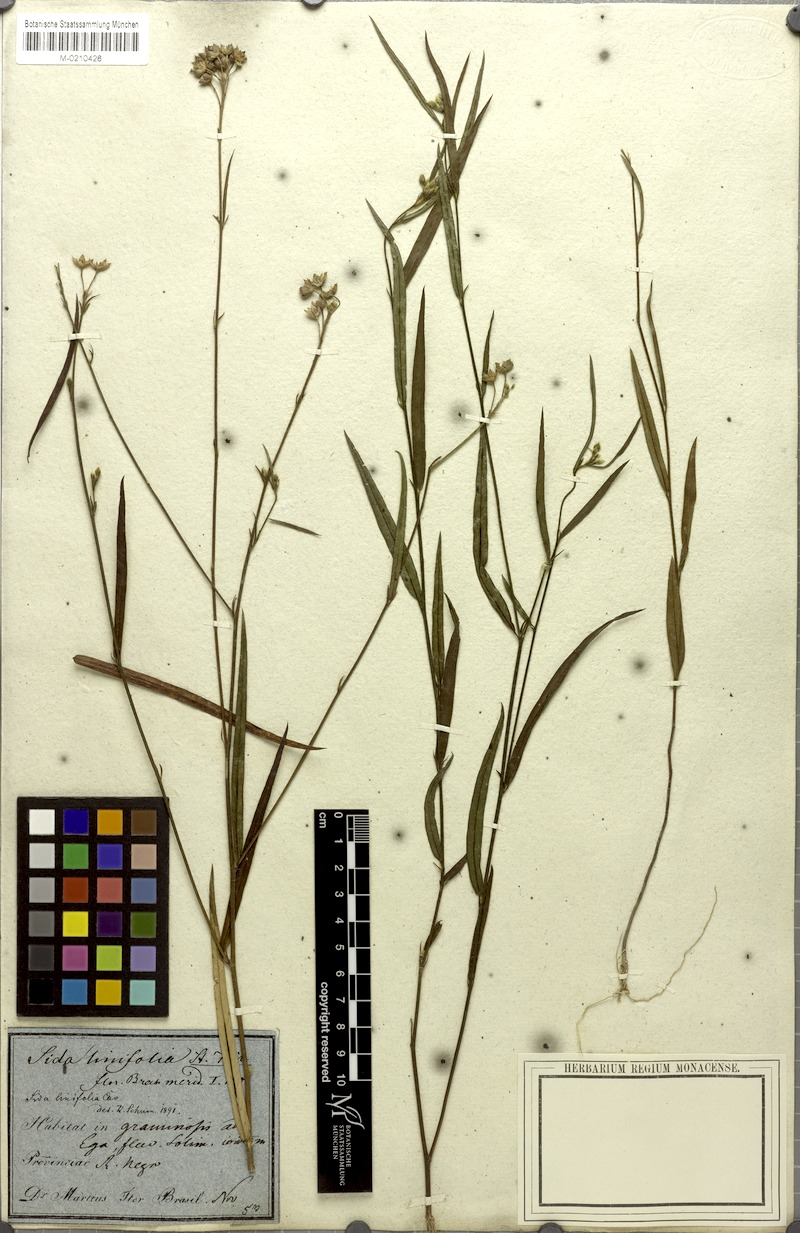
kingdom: Plantae
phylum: Tracheophyta
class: Magnoliopsida
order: Malvales
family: Malvaceae
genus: Sida
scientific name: Sida linifolia
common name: Flaxleaf fanpetals
